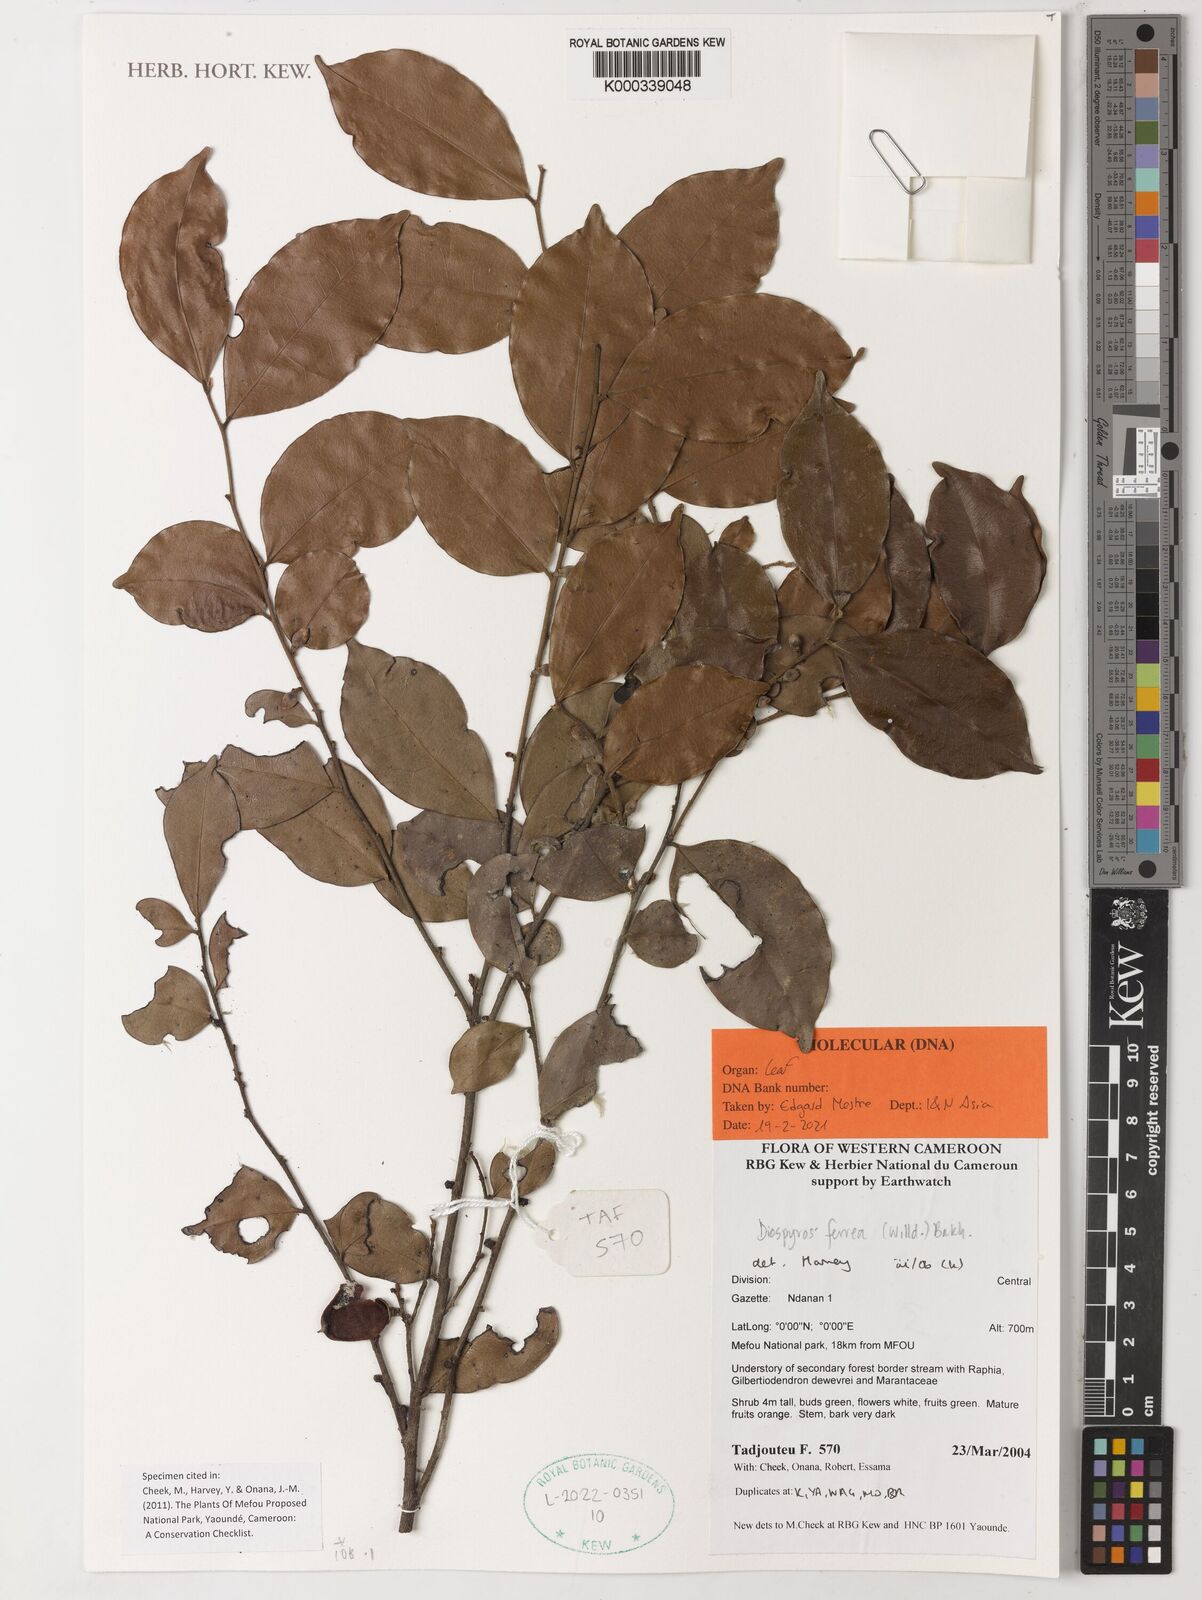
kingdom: Plantae
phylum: Tracheophyta
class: Magnoliopsida
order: Ericales
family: Ebenaceae
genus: Diospyros
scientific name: Diospyros ferrea
